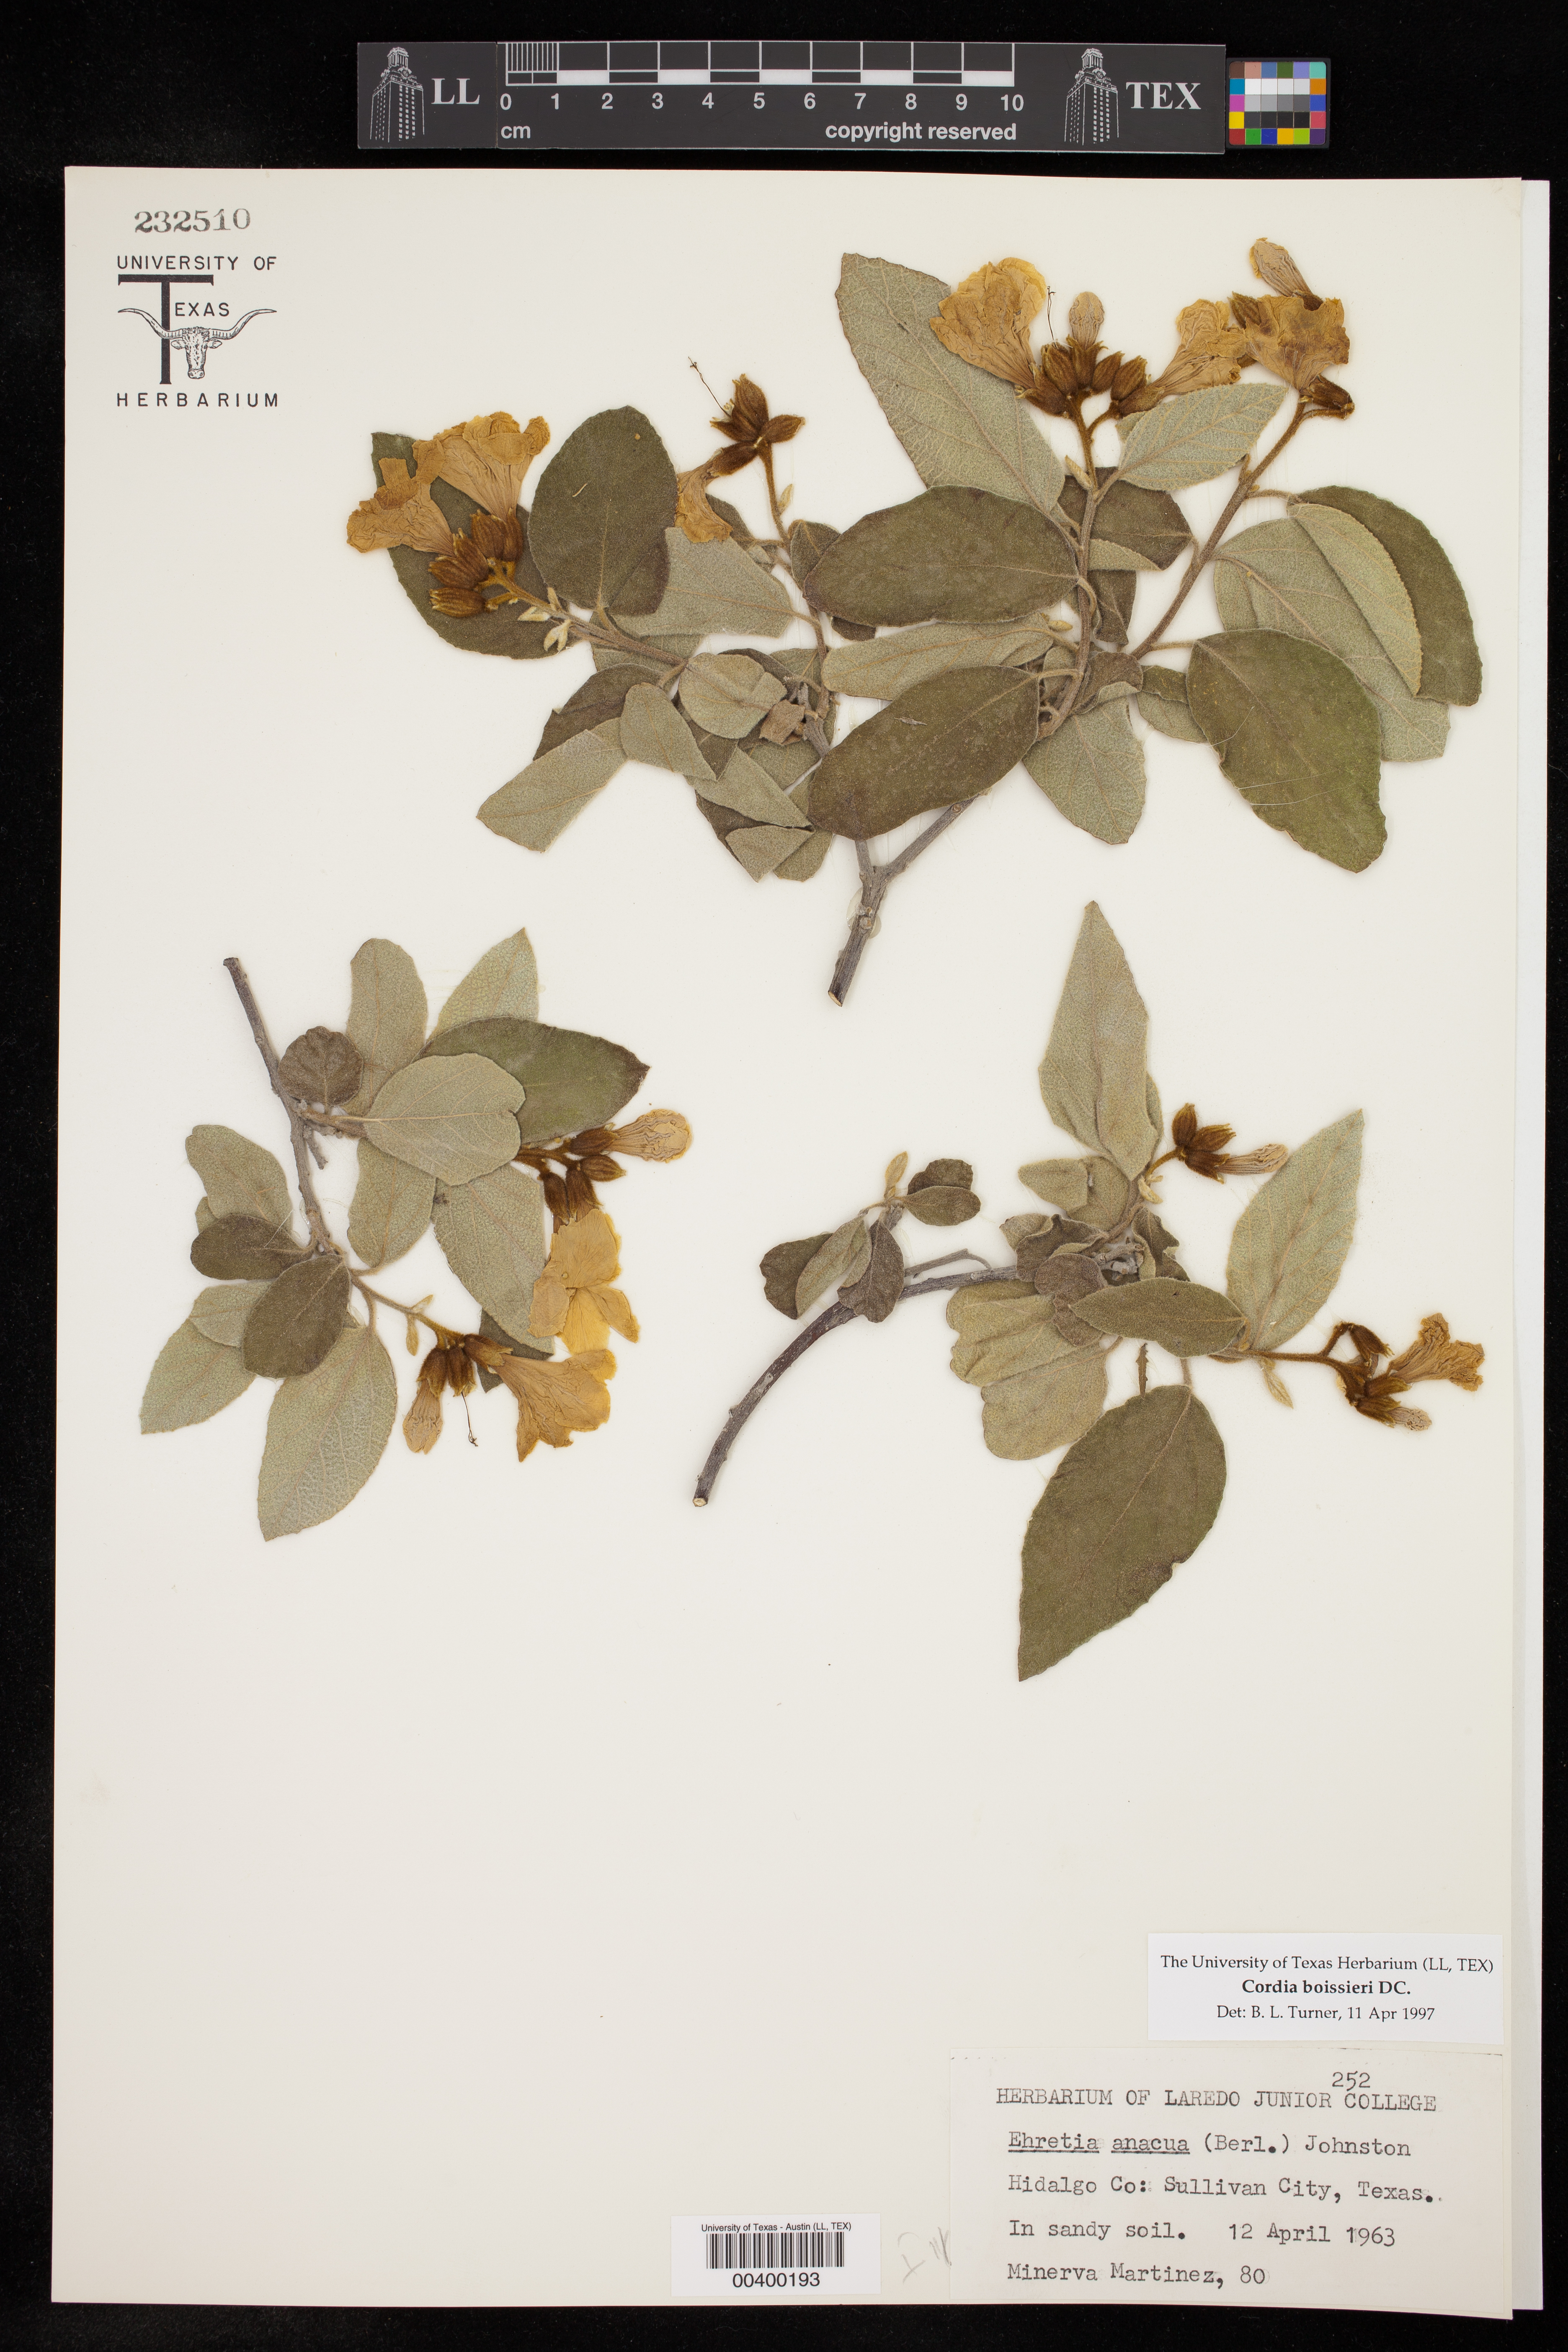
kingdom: Plantae
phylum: Tracheophyta
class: Magnoliopsida
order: Boraginales
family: Cordiaceae
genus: Cordia
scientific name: Cordia boissieri
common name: Mexican-olive
